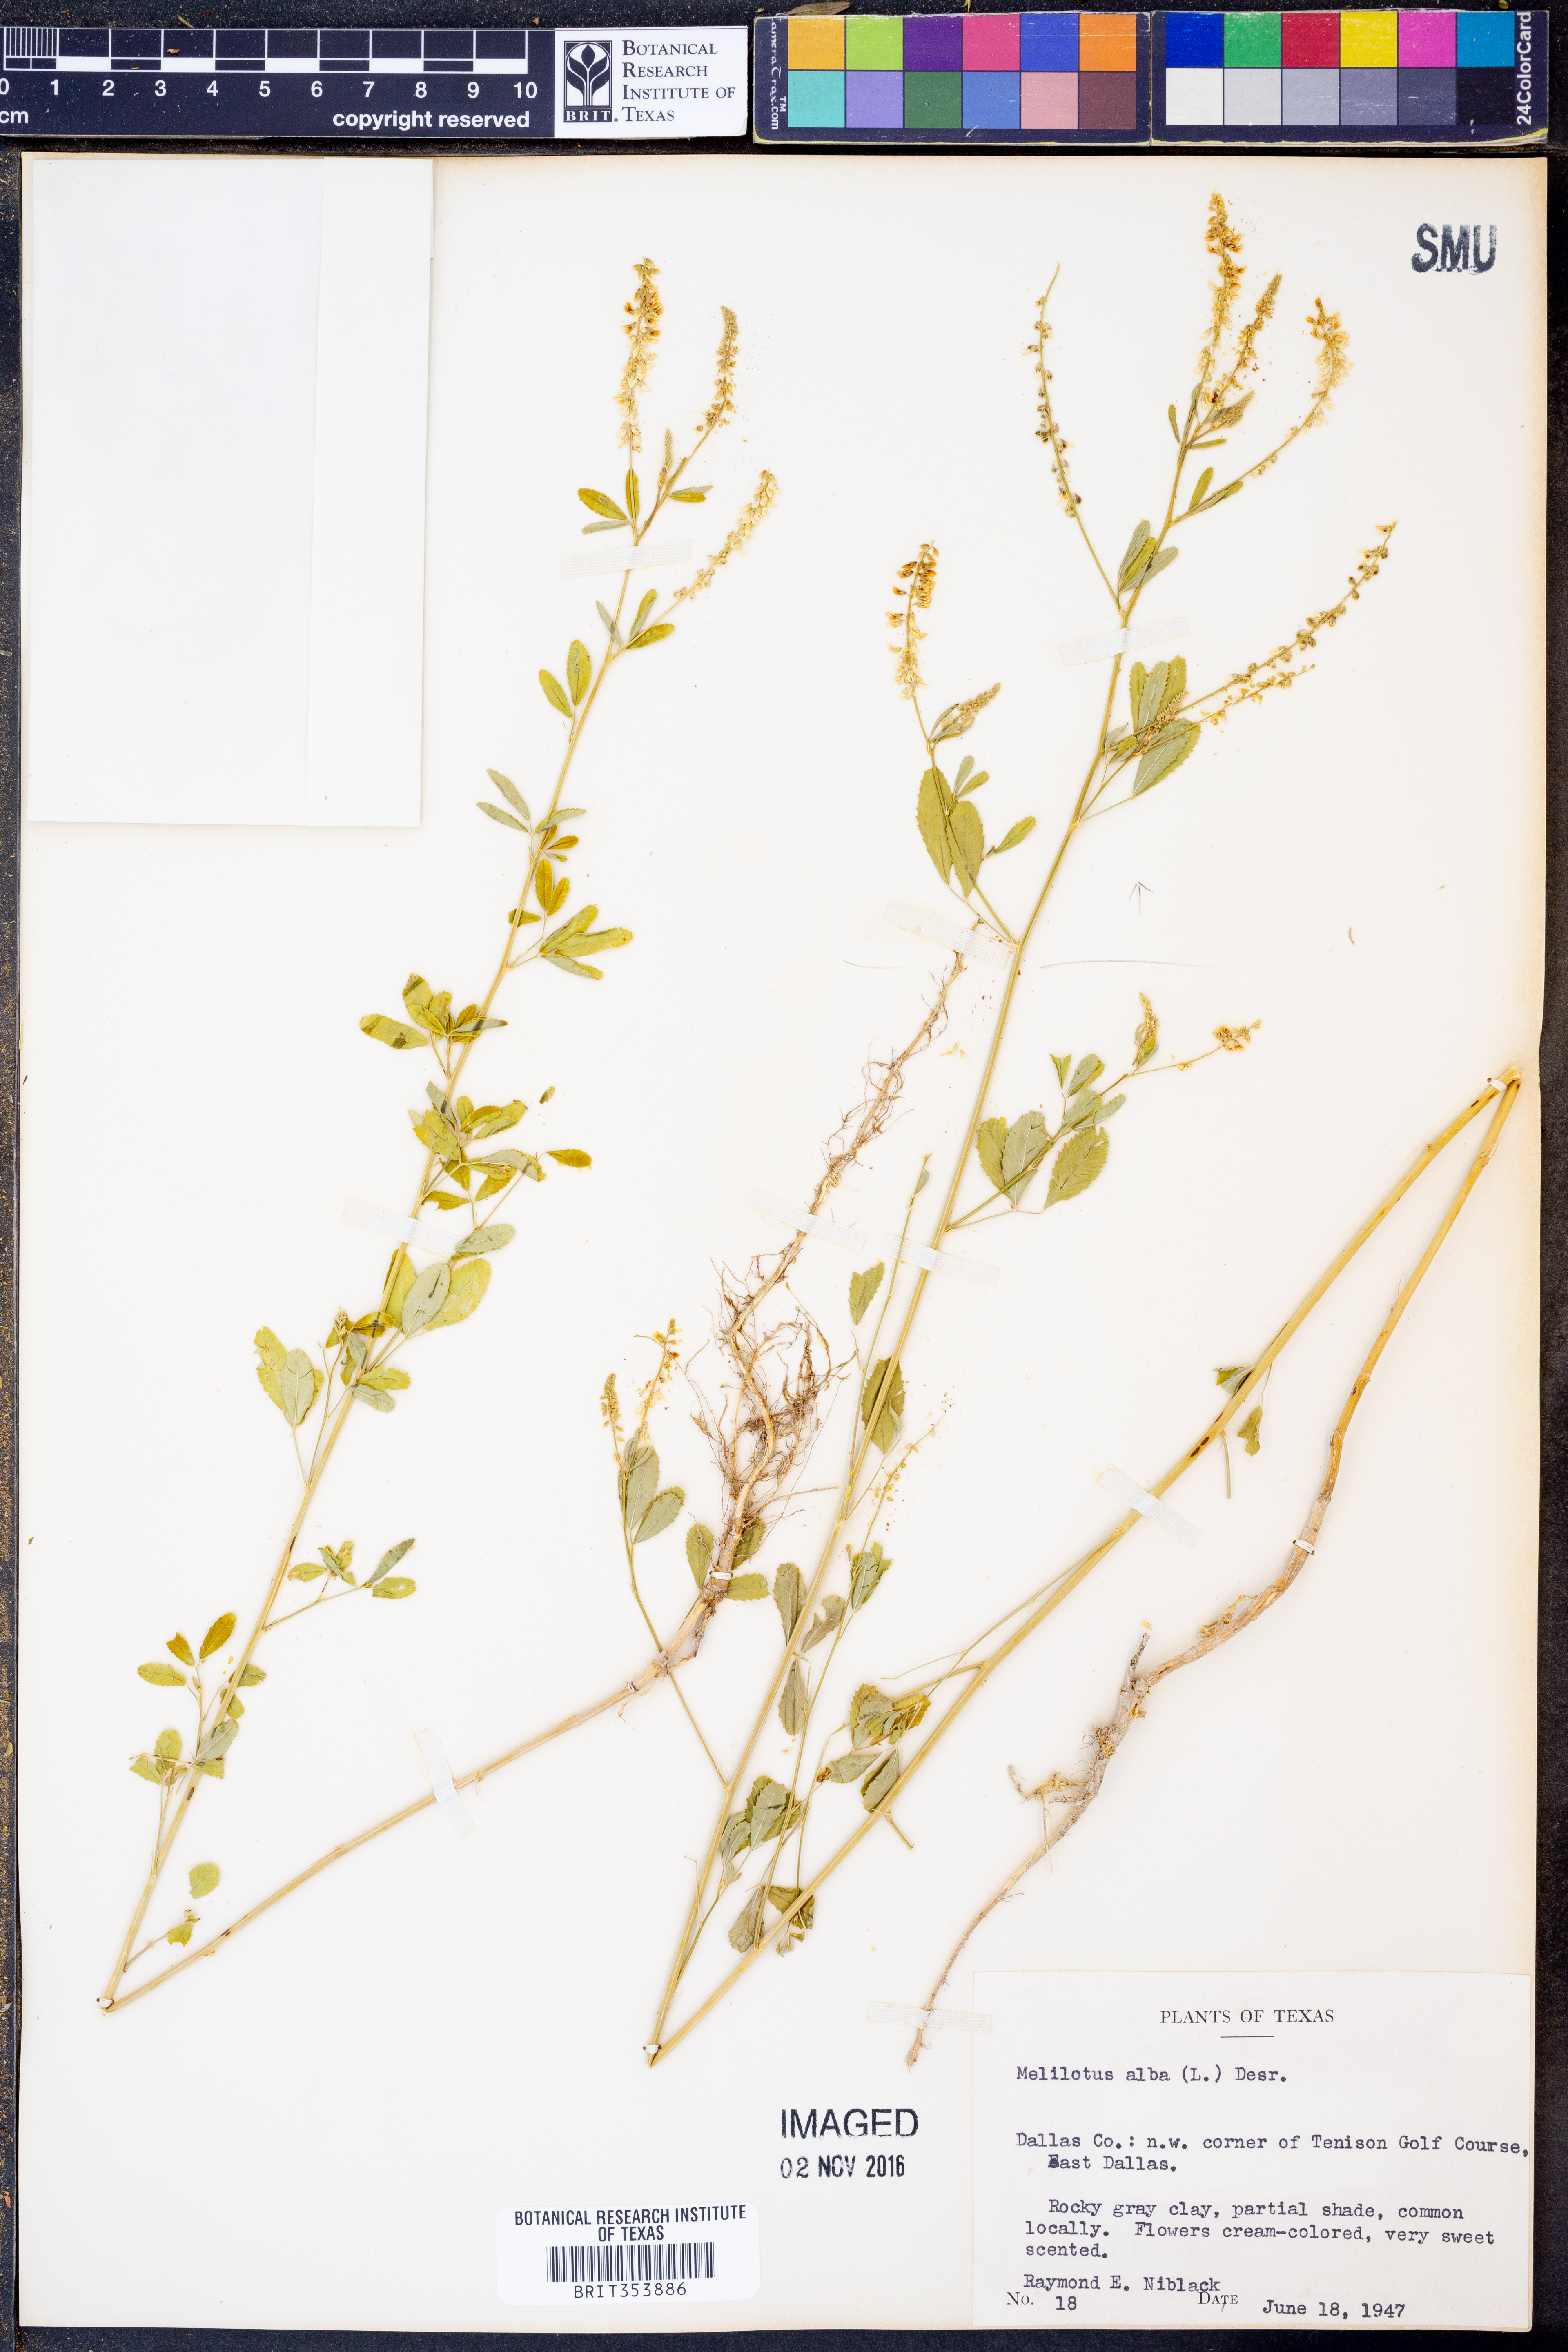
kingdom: Plantae
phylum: Tracheophyta
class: Magnoliopsida
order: Fabales
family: Fabaceae
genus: Melilotus
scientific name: Melilotus albus
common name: White melilot
